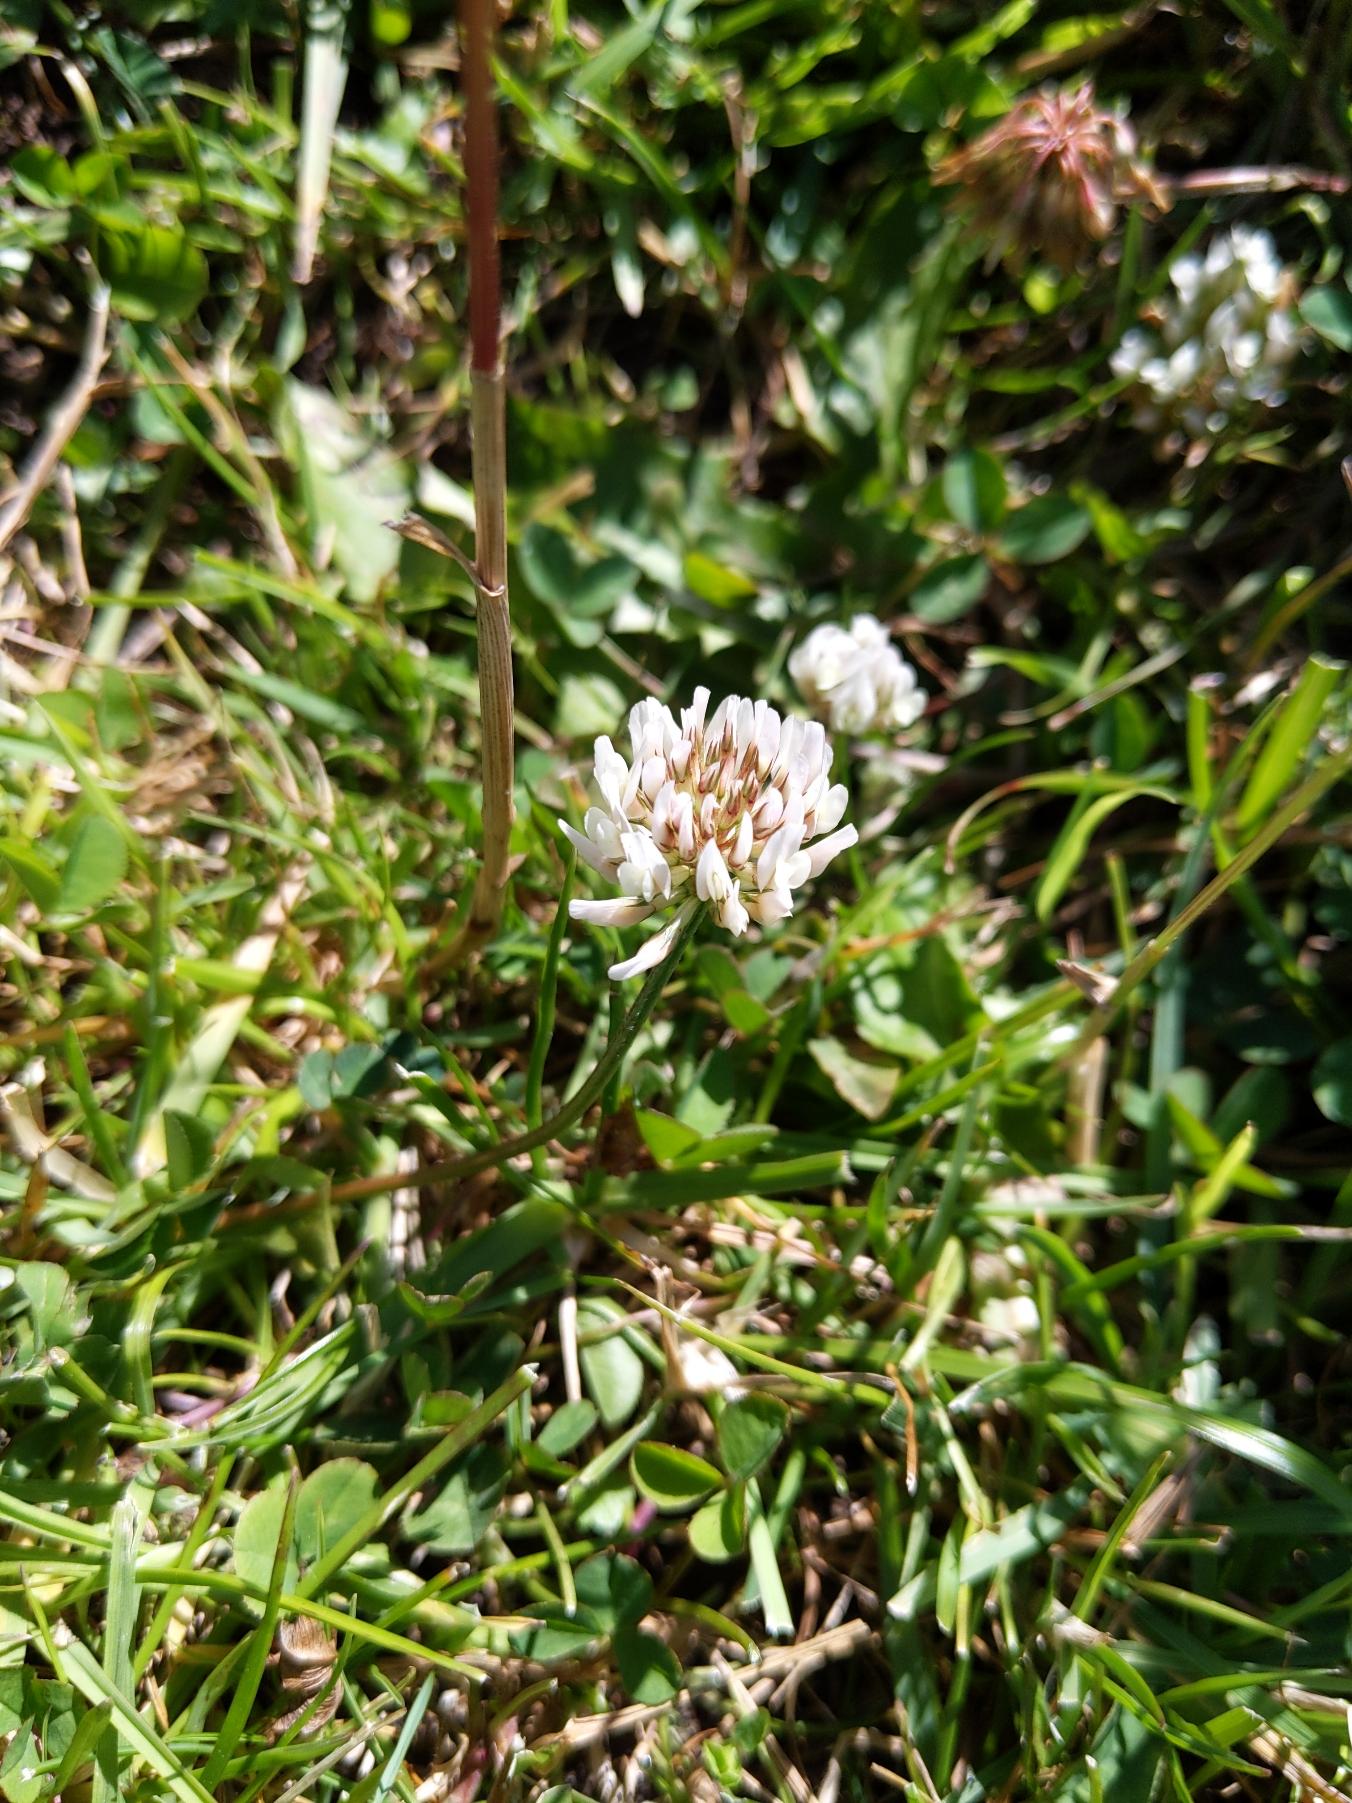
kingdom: Plantae
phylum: Tracheophyta
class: Magnoliopsida
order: Fabales
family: Fabaceae
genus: Trifolium
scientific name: Trifolium repens
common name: Hvid-kløver
